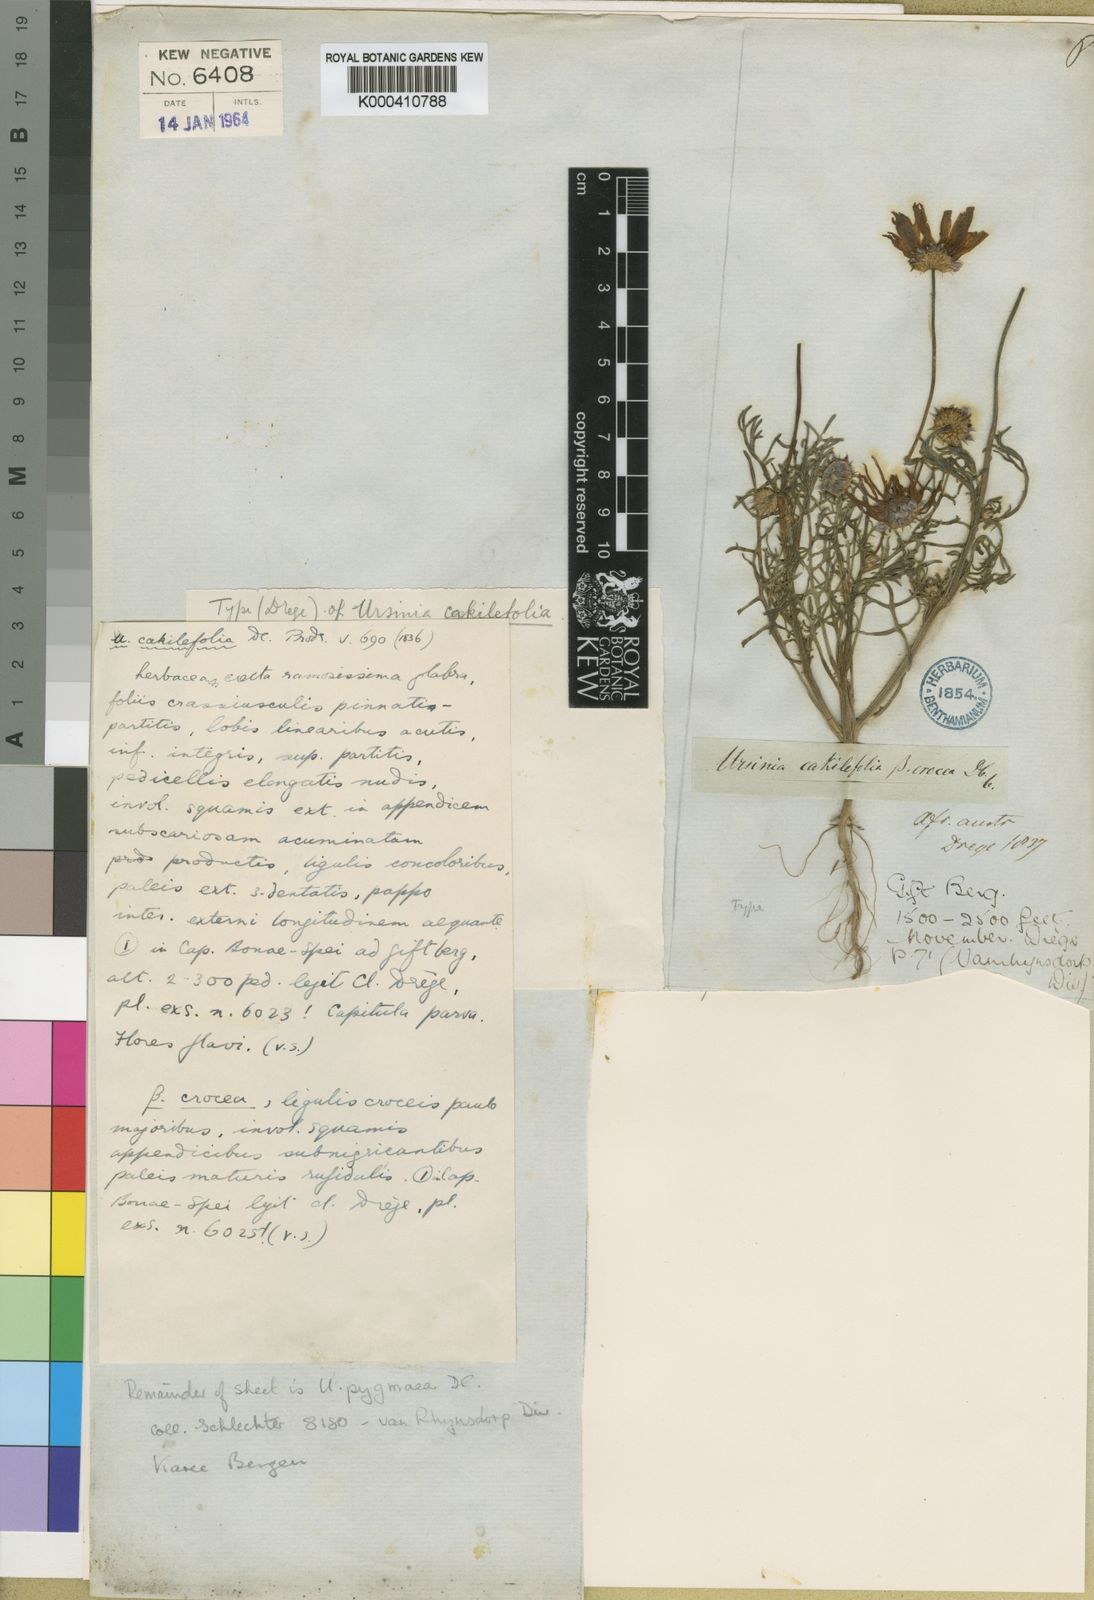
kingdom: Plantae
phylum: Tracheophyta
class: Magnoliopsida
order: Asterales
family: Asteraceae
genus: Ursinia
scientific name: Ursinia cakilefolia
